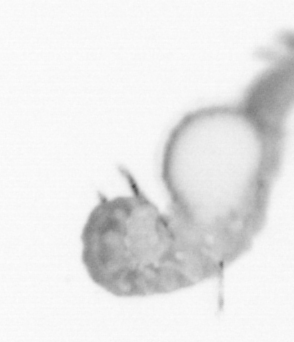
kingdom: Animalia
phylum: Annelida
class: Polychaeta
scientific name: Polychaeta
